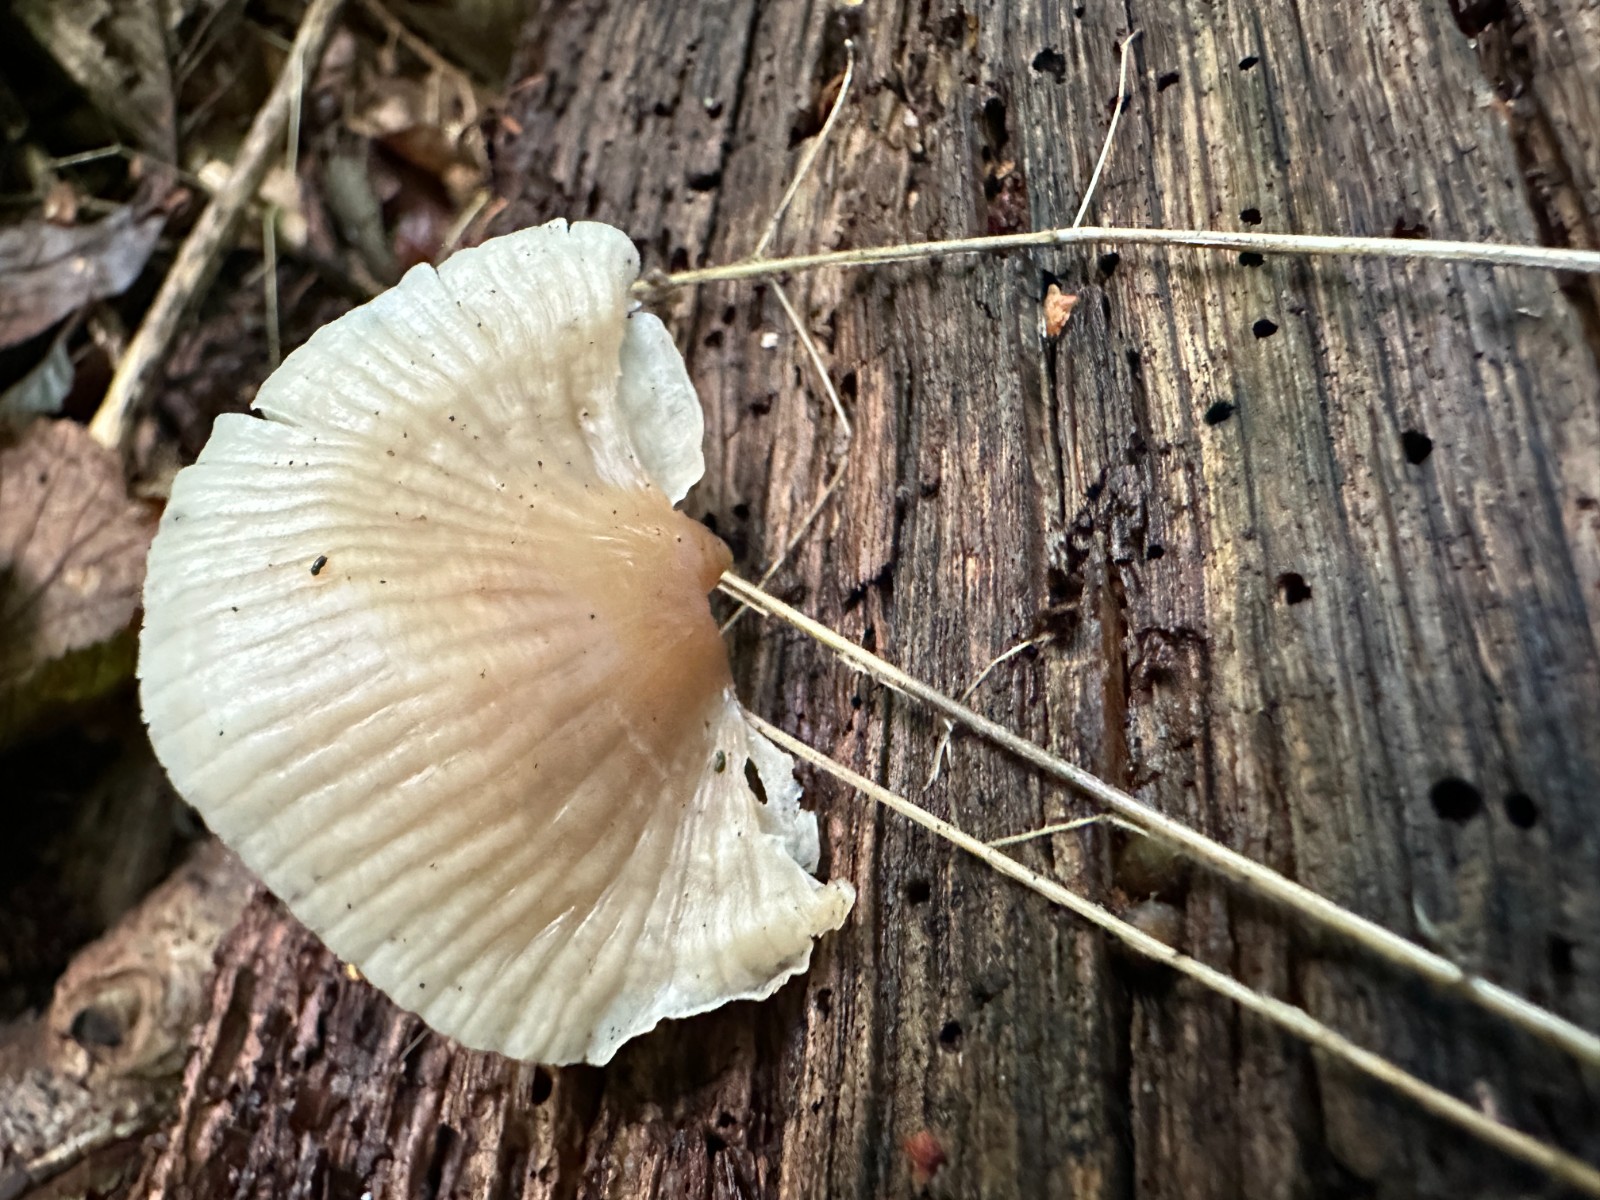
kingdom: Fungi
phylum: Basidiomycota
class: Agaricomycetes
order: Agaricales
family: Mycenaceae
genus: Mycena
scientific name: Mycena galericulata
